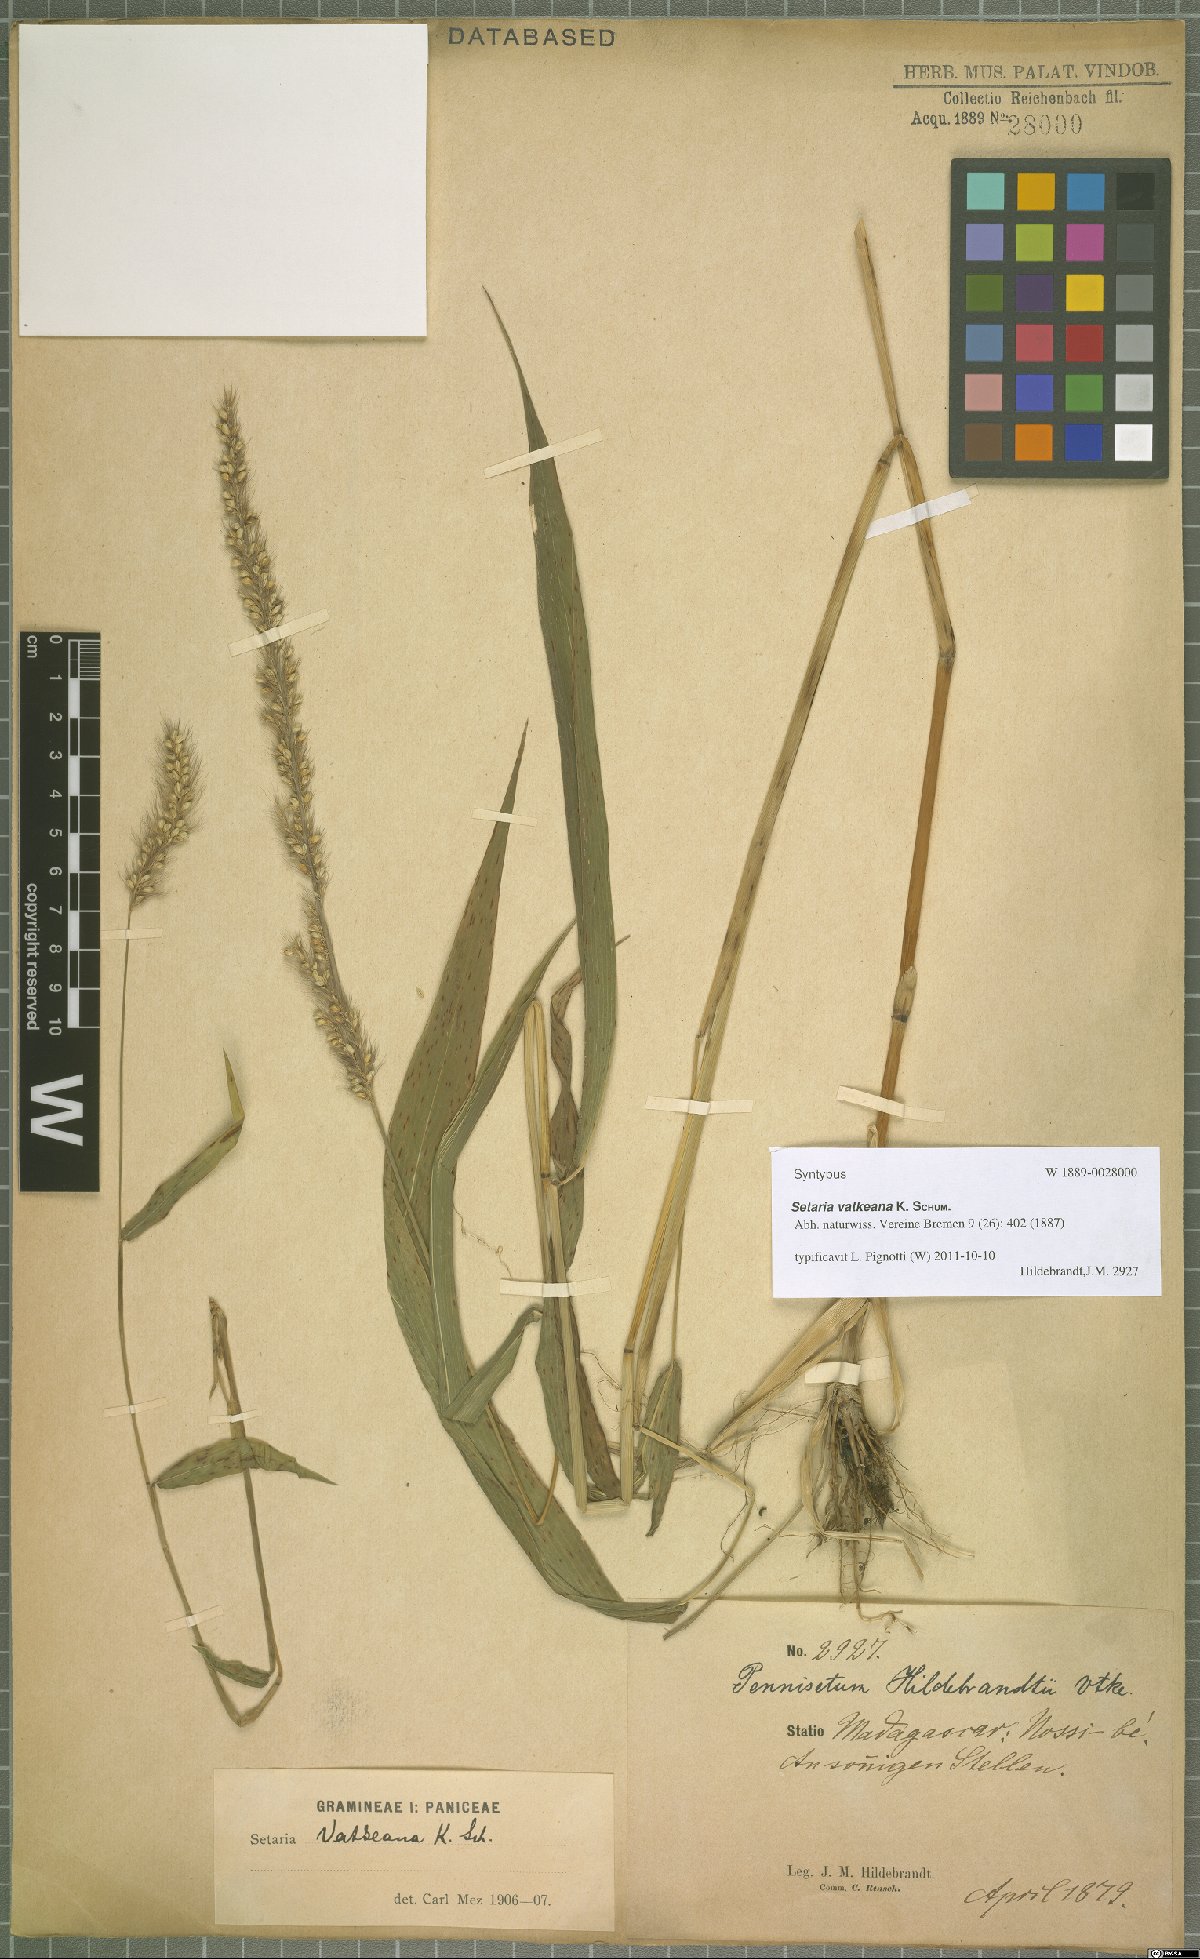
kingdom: Plantae
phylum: Tracheophyta
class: Liliopsida
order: Poales
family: Poaceae
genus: Setaria
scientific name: Setaria vatkeana
